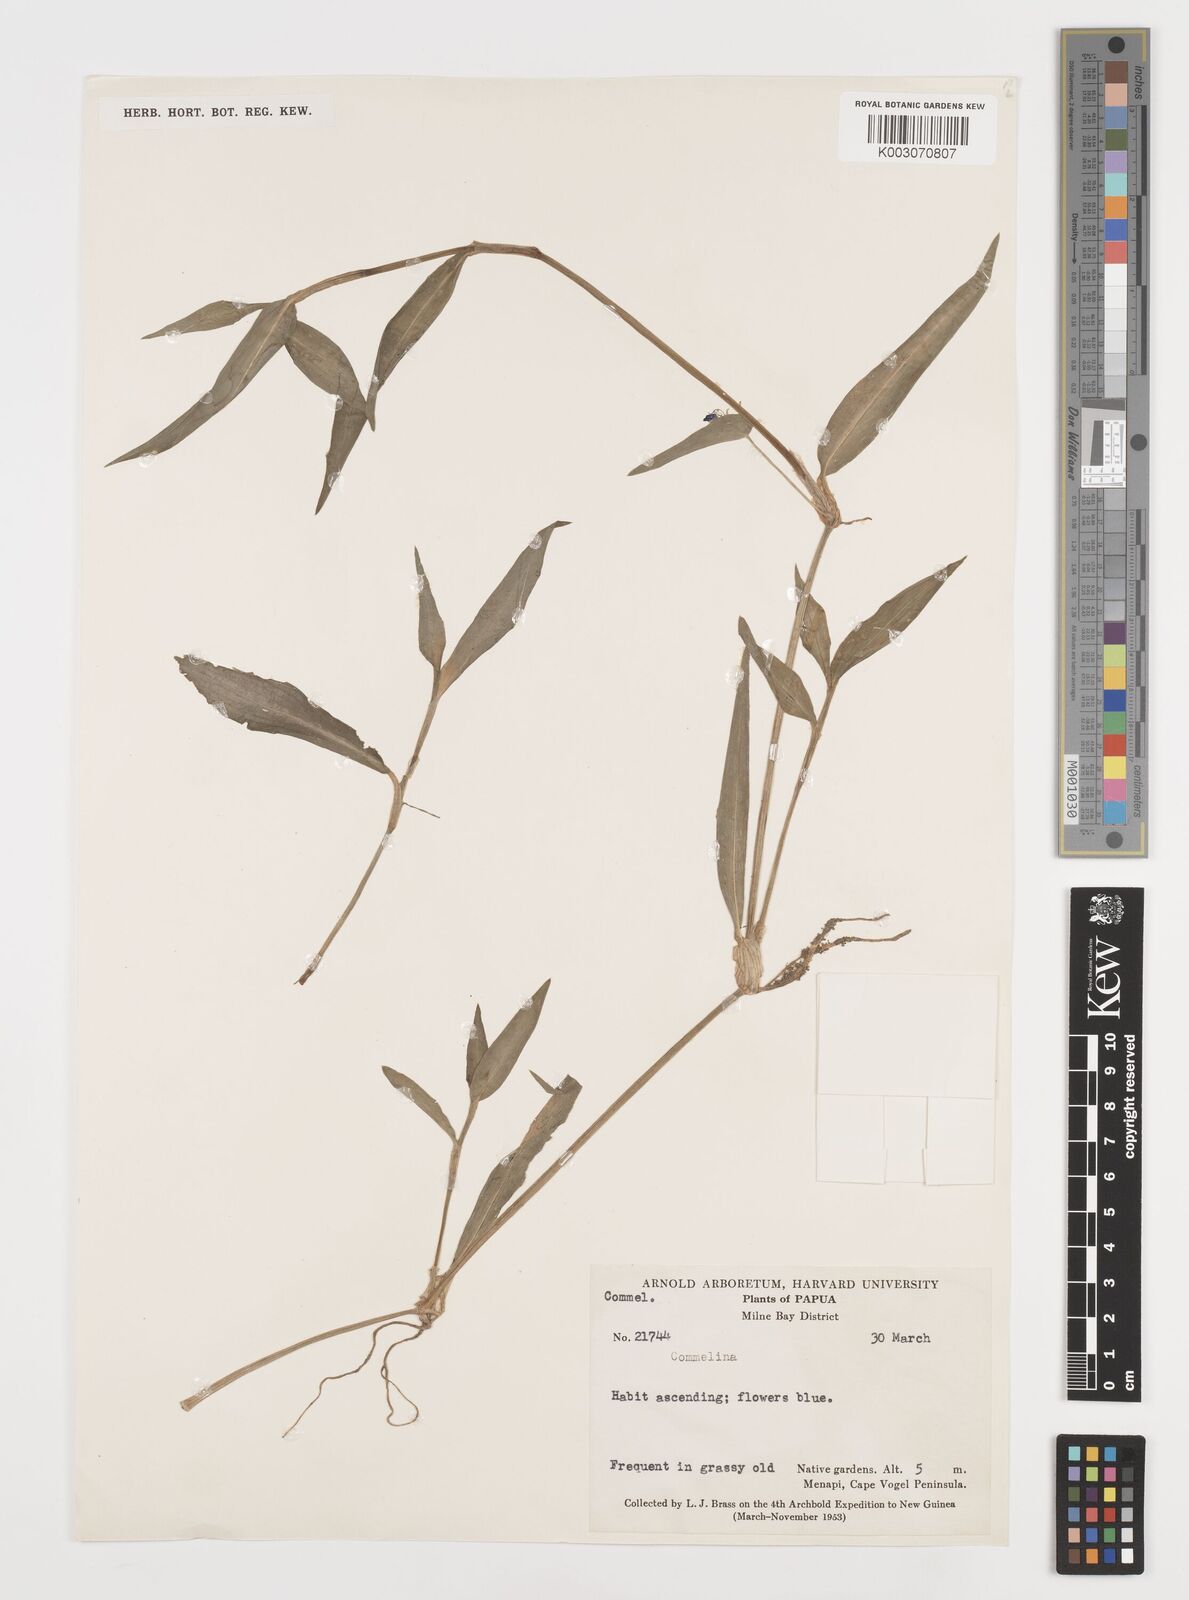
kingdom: Plantae
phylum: Tracheophyta
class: Liliopsida
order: Commelinales
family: Commelinaceae
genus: Commelina
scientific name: Commelina
